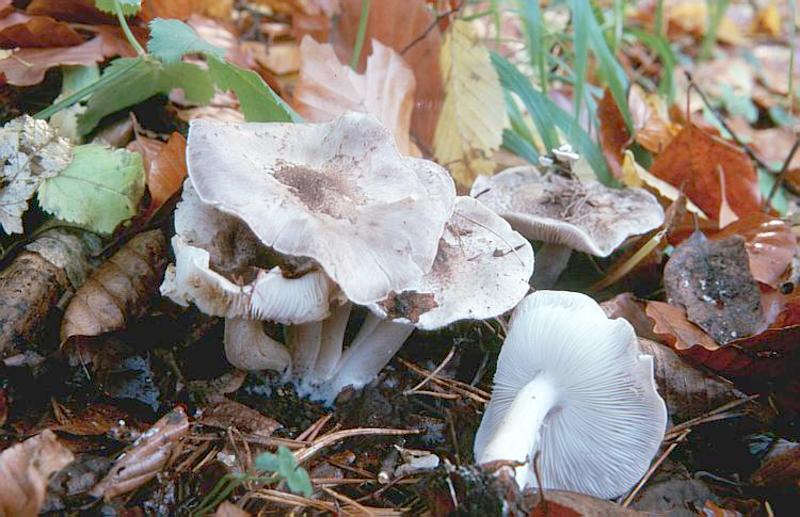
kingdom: Fungi
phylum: Basidiomycota
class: Agaricomycetes
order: Agaricales
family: Tricholomataceae
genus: Tricholoma
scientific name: Tricholoma scalpturatum
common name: Yellowing knight
